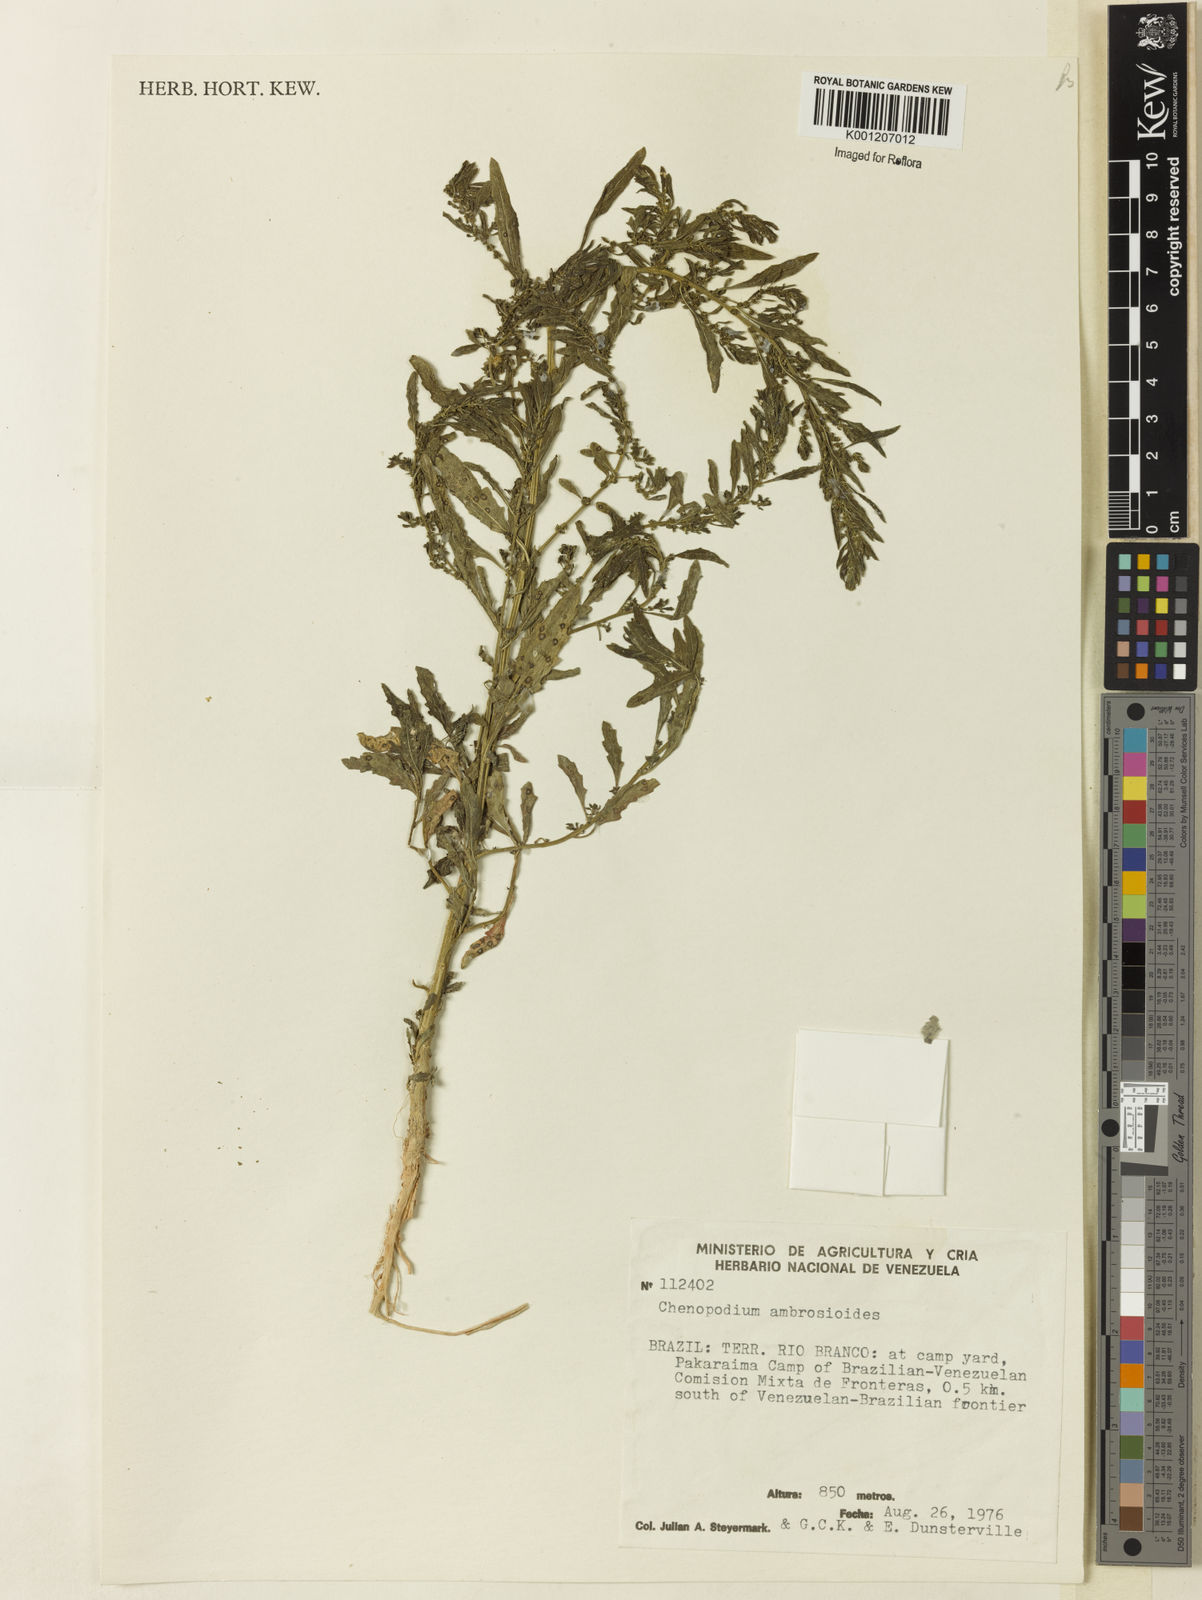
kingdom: Plantae
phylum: Tracheophyta
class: Magnoliopsida
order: Caryophyllales
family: Amaranthaceae
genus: Dysphania
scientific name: Dysphania ambrosioides
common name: Wormseed
